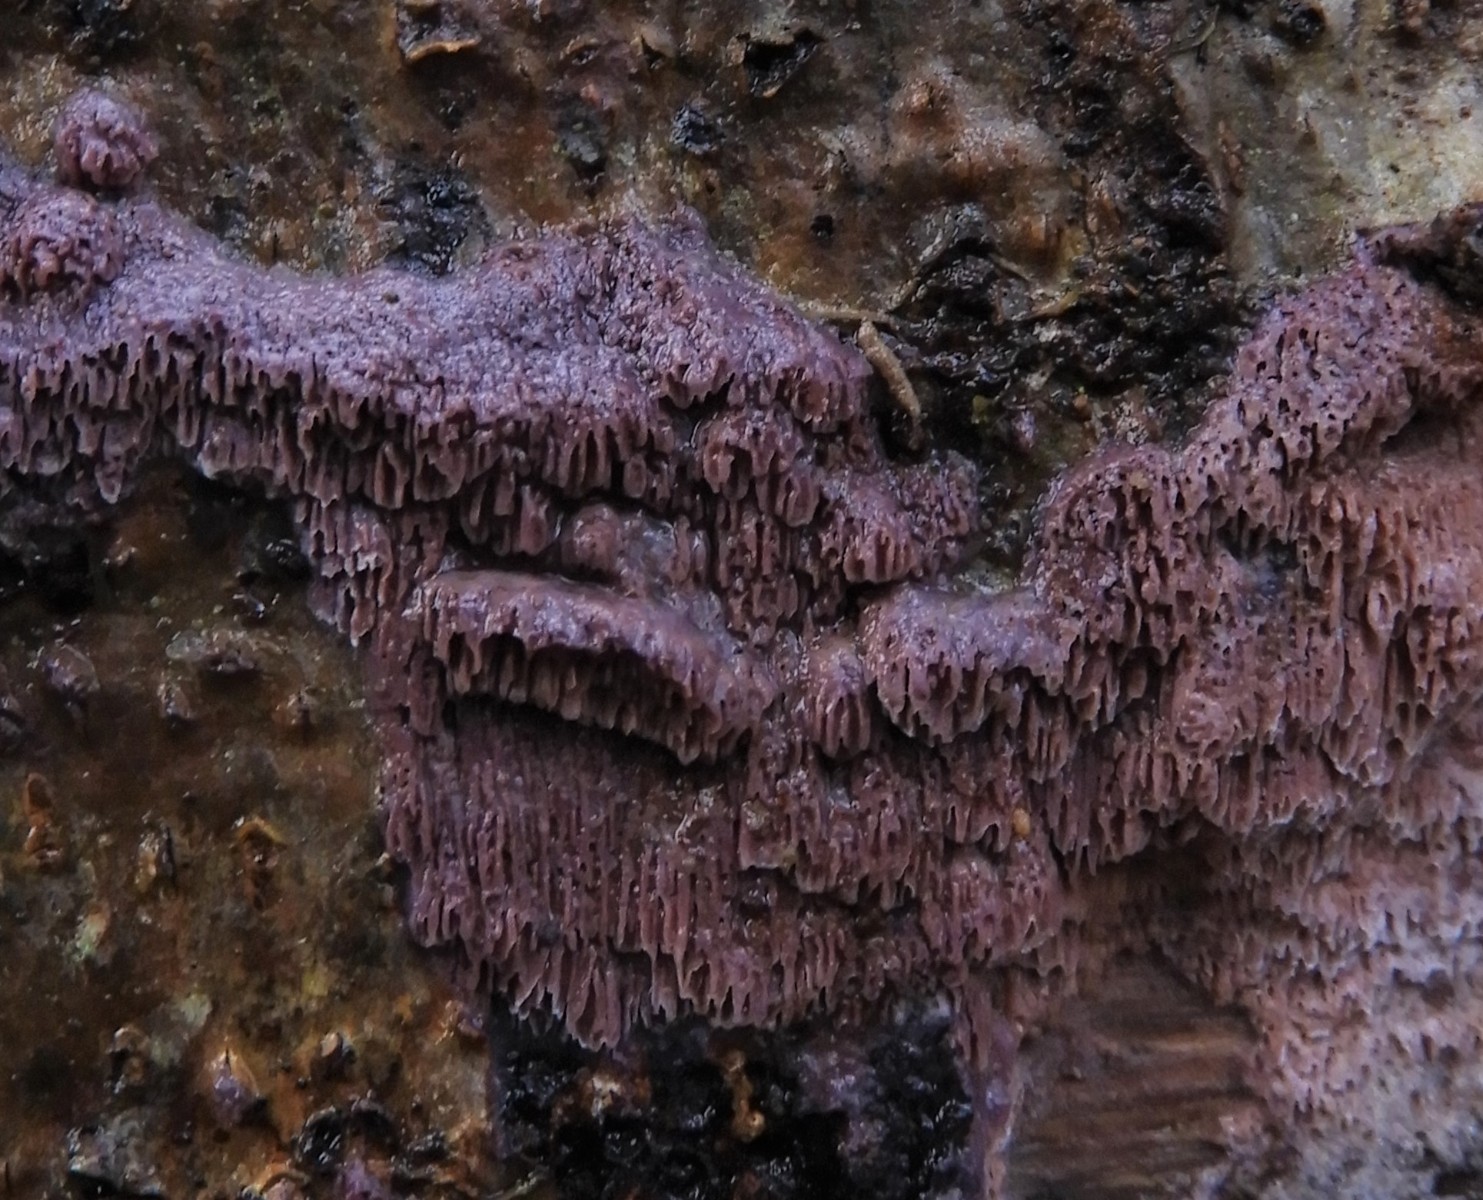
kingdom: Fungi
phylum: Basidiomycota
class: Agaricomycetes
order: Polyporales
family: Irpicaceae
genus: Ceriporia
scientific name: Ceriporia excelsa
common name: lilla voksporesvamp
